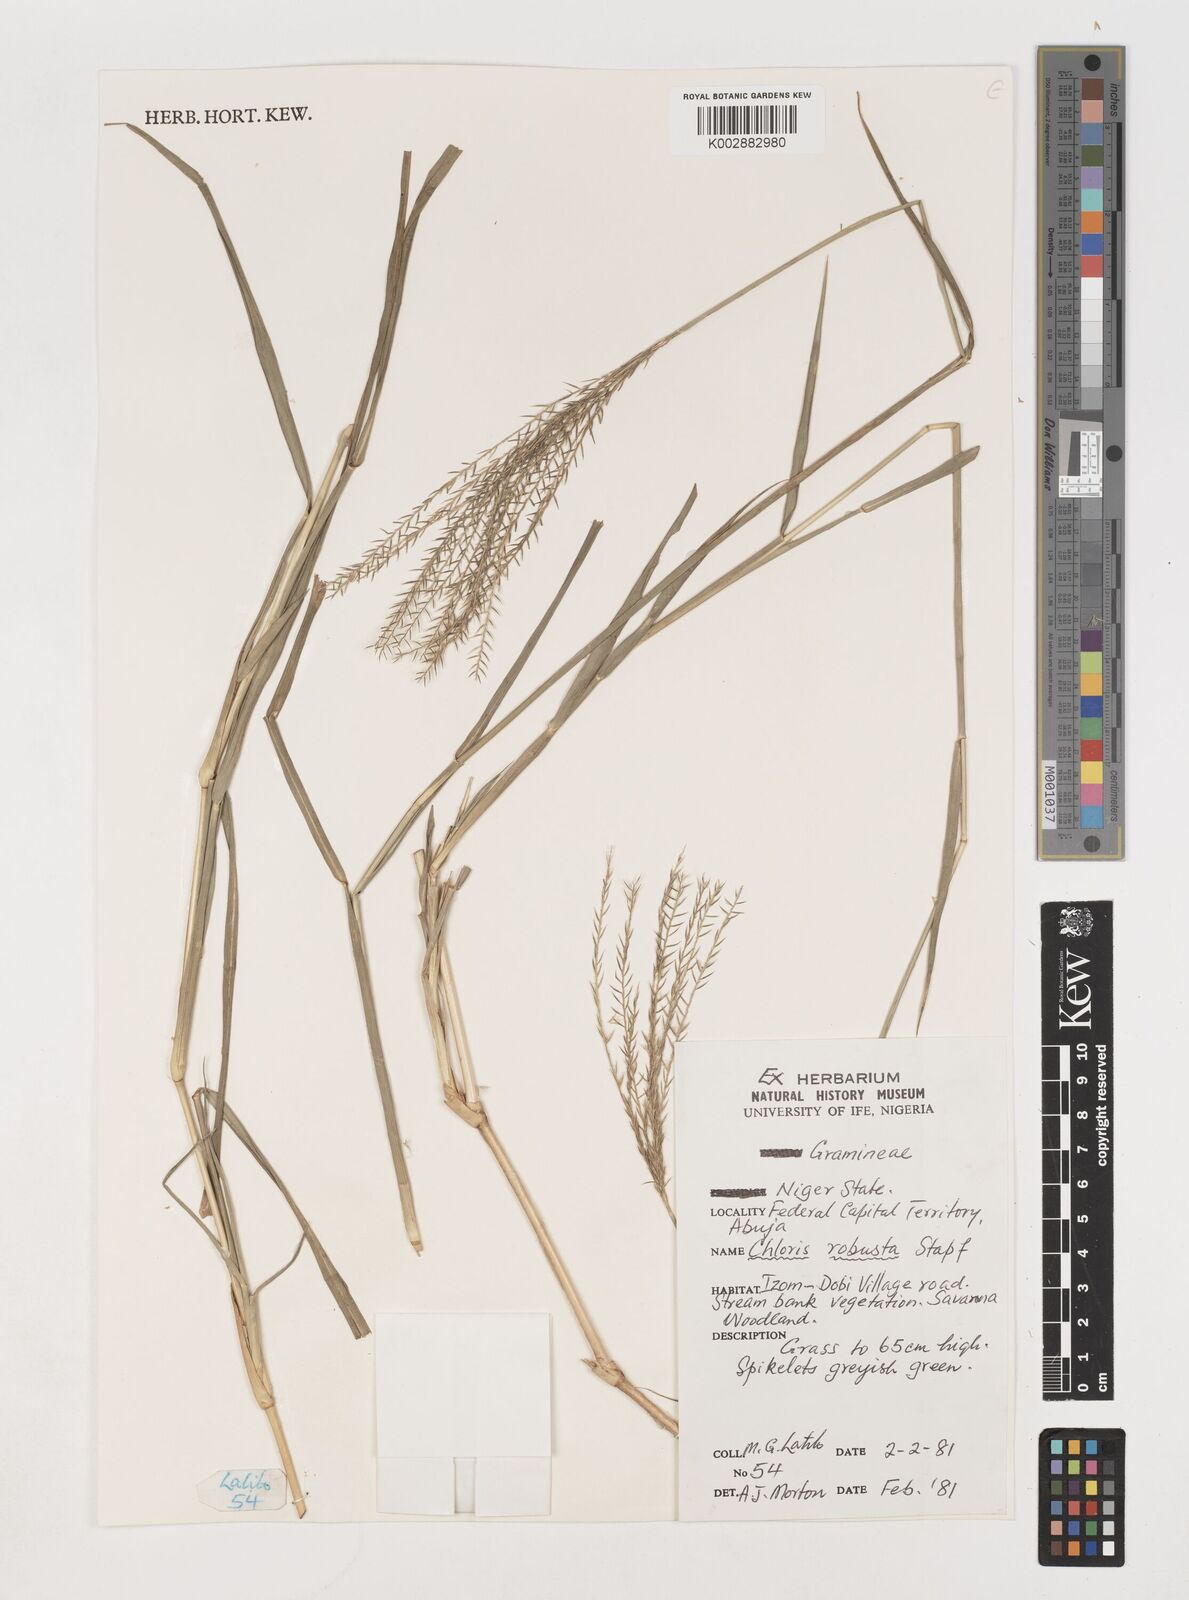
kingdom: Plantae
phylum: Tracheophyta
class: Liliopsida
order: Poales
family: Poaceae
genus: Chloris
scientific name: Chloris robusta
